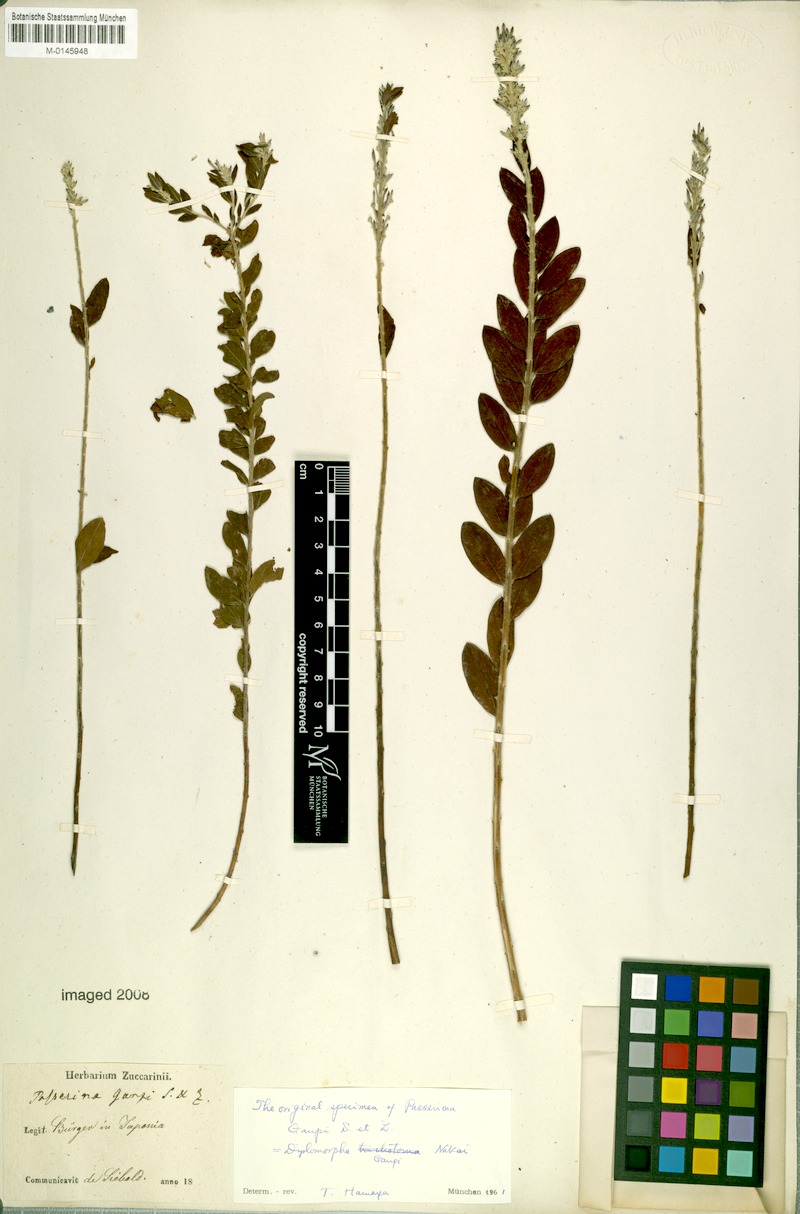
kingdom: Plantae
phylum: Tracheophyta
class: Magnoliopsida
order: Malvales
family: Thymelaeaceae
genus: Wikstroemia
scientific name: Wikstroemia ganpi
